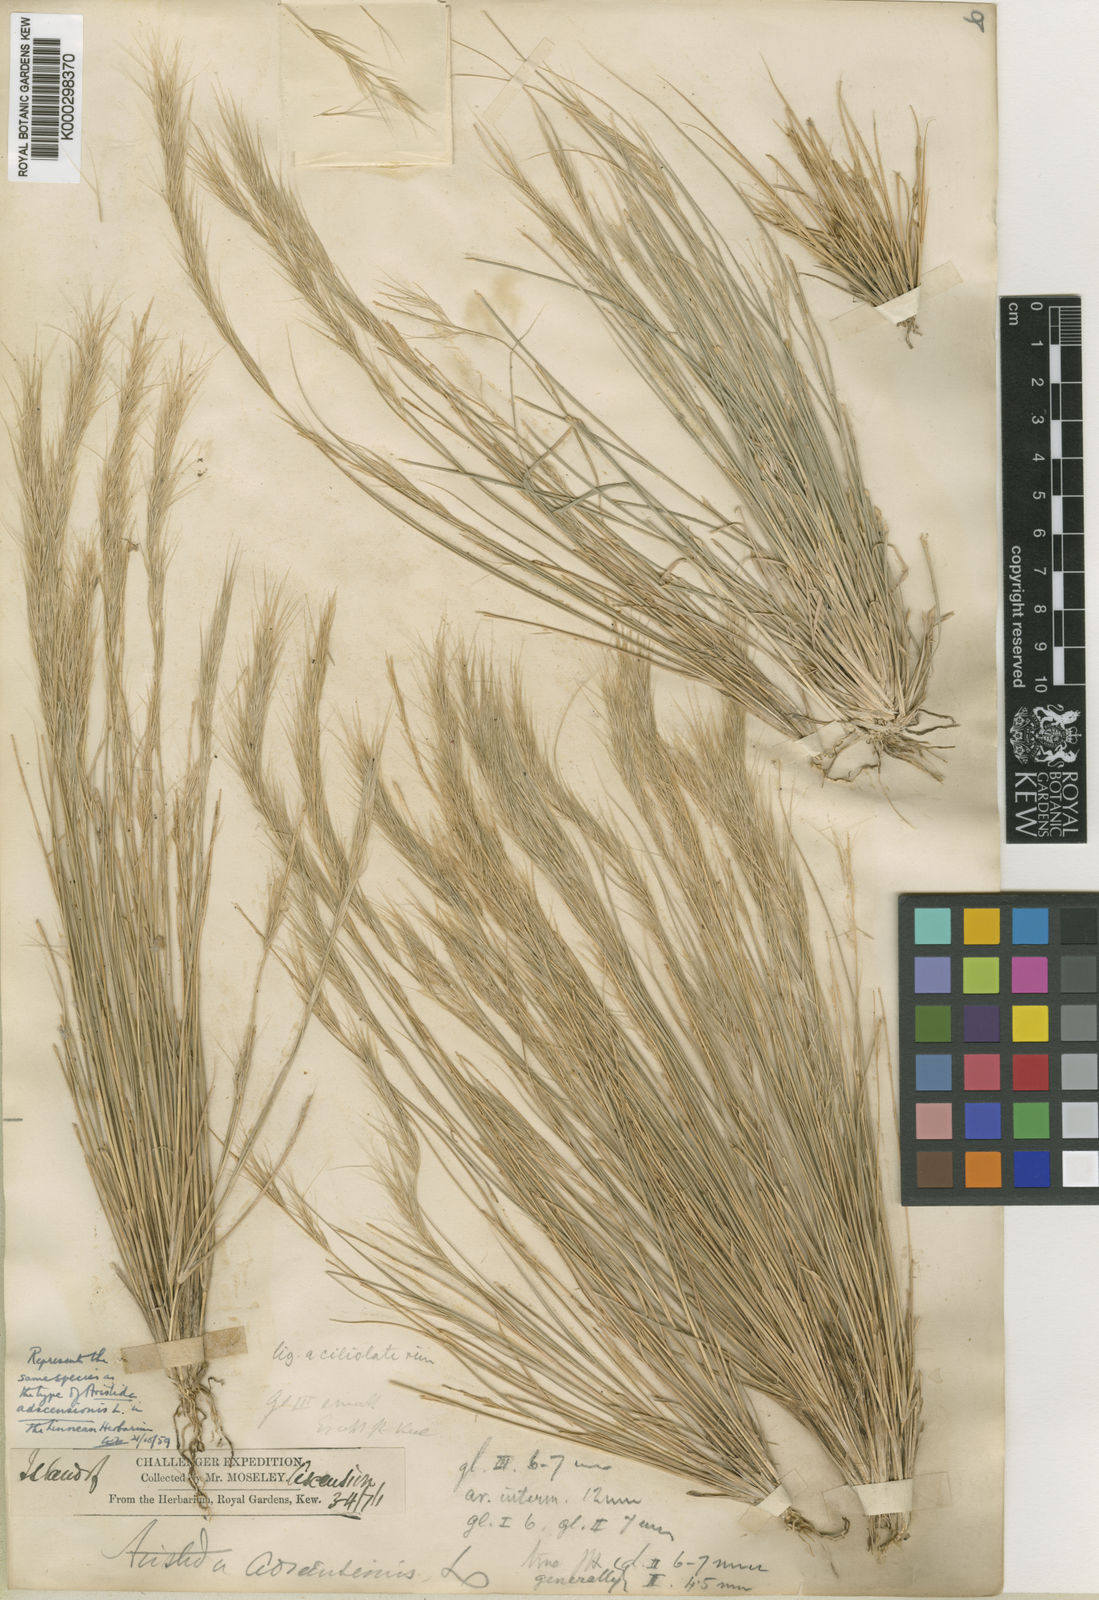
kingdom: Plantae
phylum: Tracheophyta
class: Liliopsida
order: Poales
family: Poaceae
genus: Aristida
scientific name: Aristida adscensionis
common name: Sixweeks threeawn
